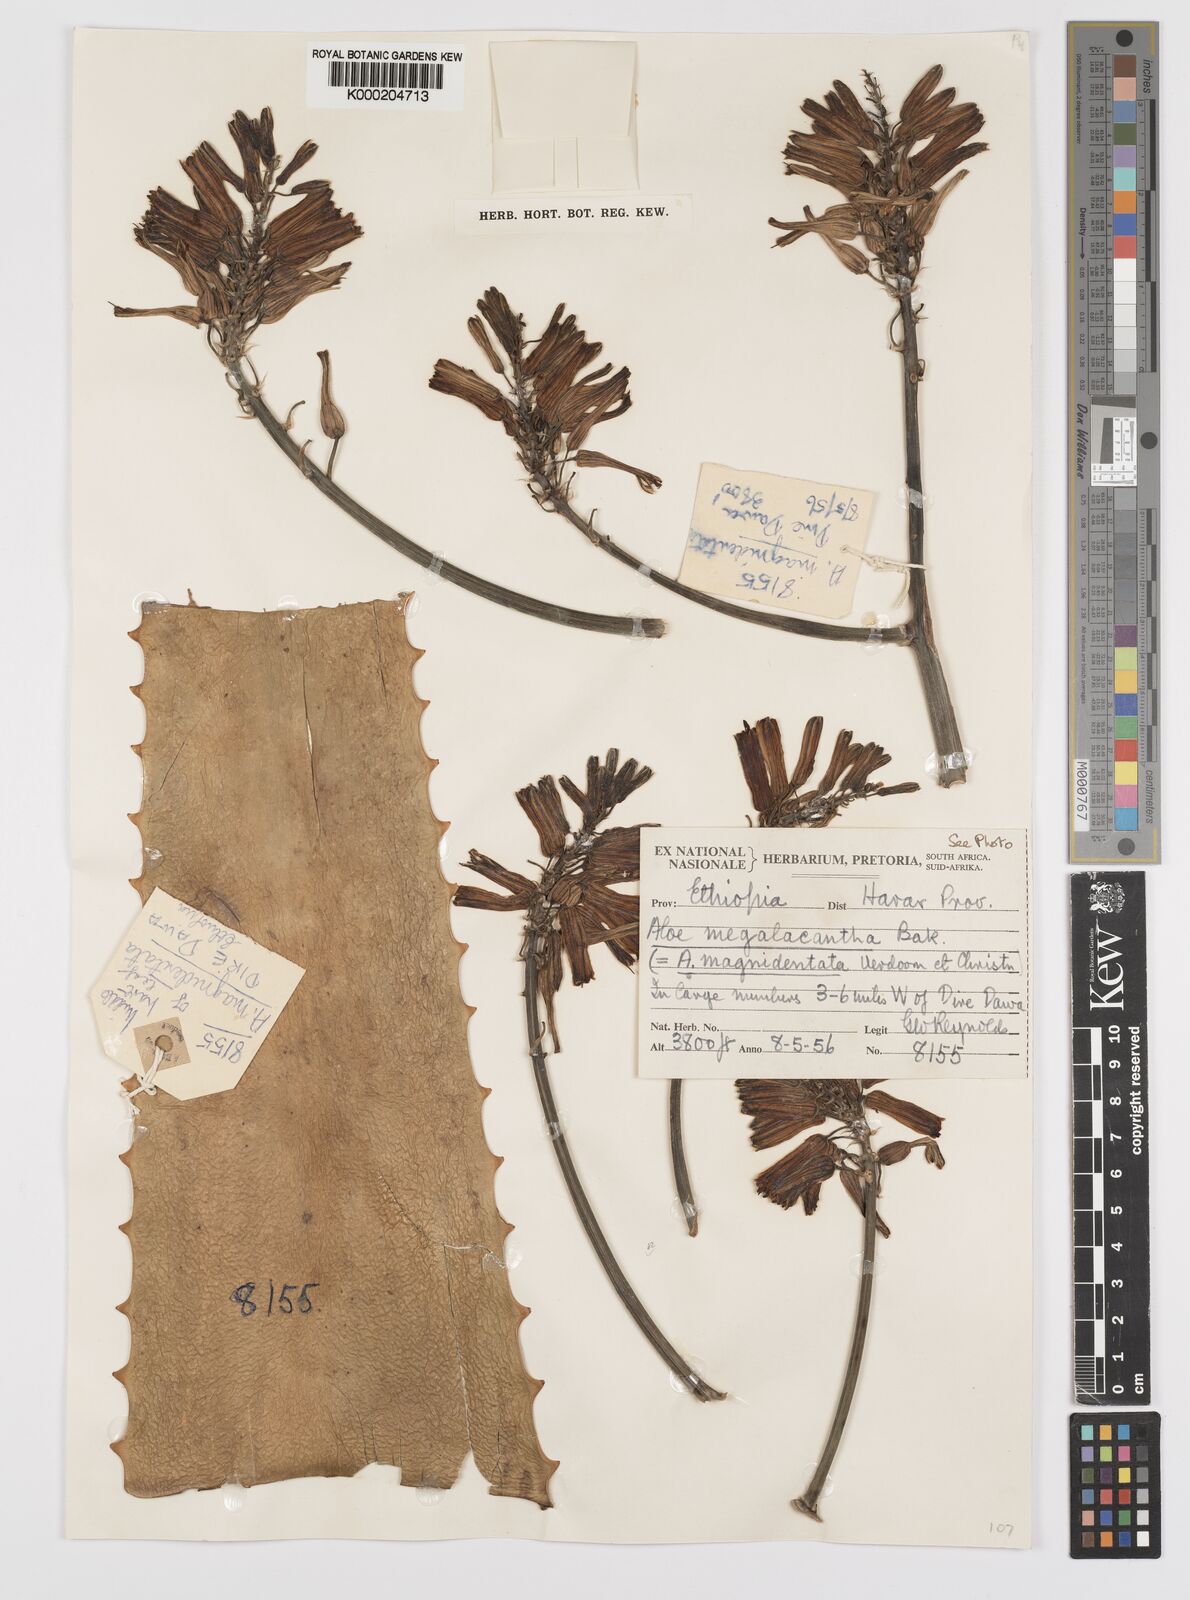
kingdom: Plantae
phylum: Tracheophyta
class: Liliopsida
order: Asparagales
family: Asphodelaceae
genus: Aloe
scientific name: Aloe megalacantha
